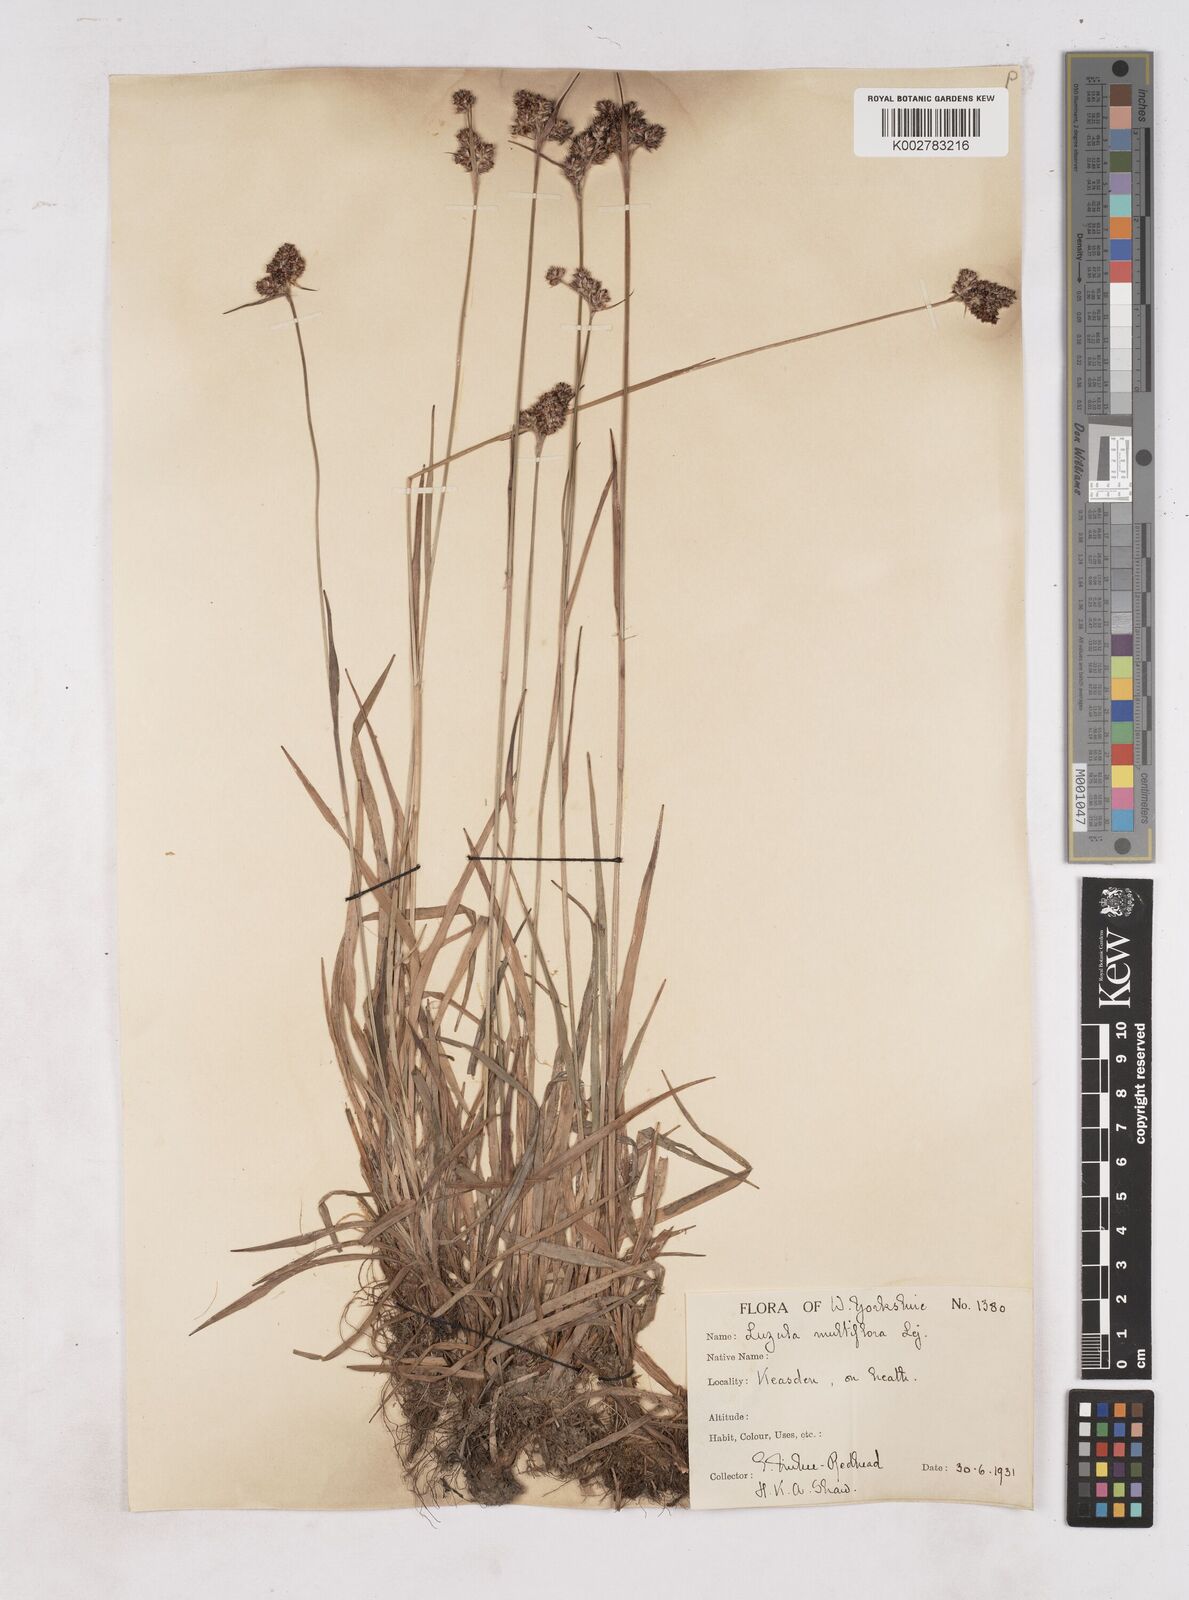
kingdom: Plantae
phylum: Tracheophyta
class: Liliopsida
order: Poales
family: Juncaceae
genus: Luzula
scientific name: Luzula multiflora
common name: Heath wood-rush
